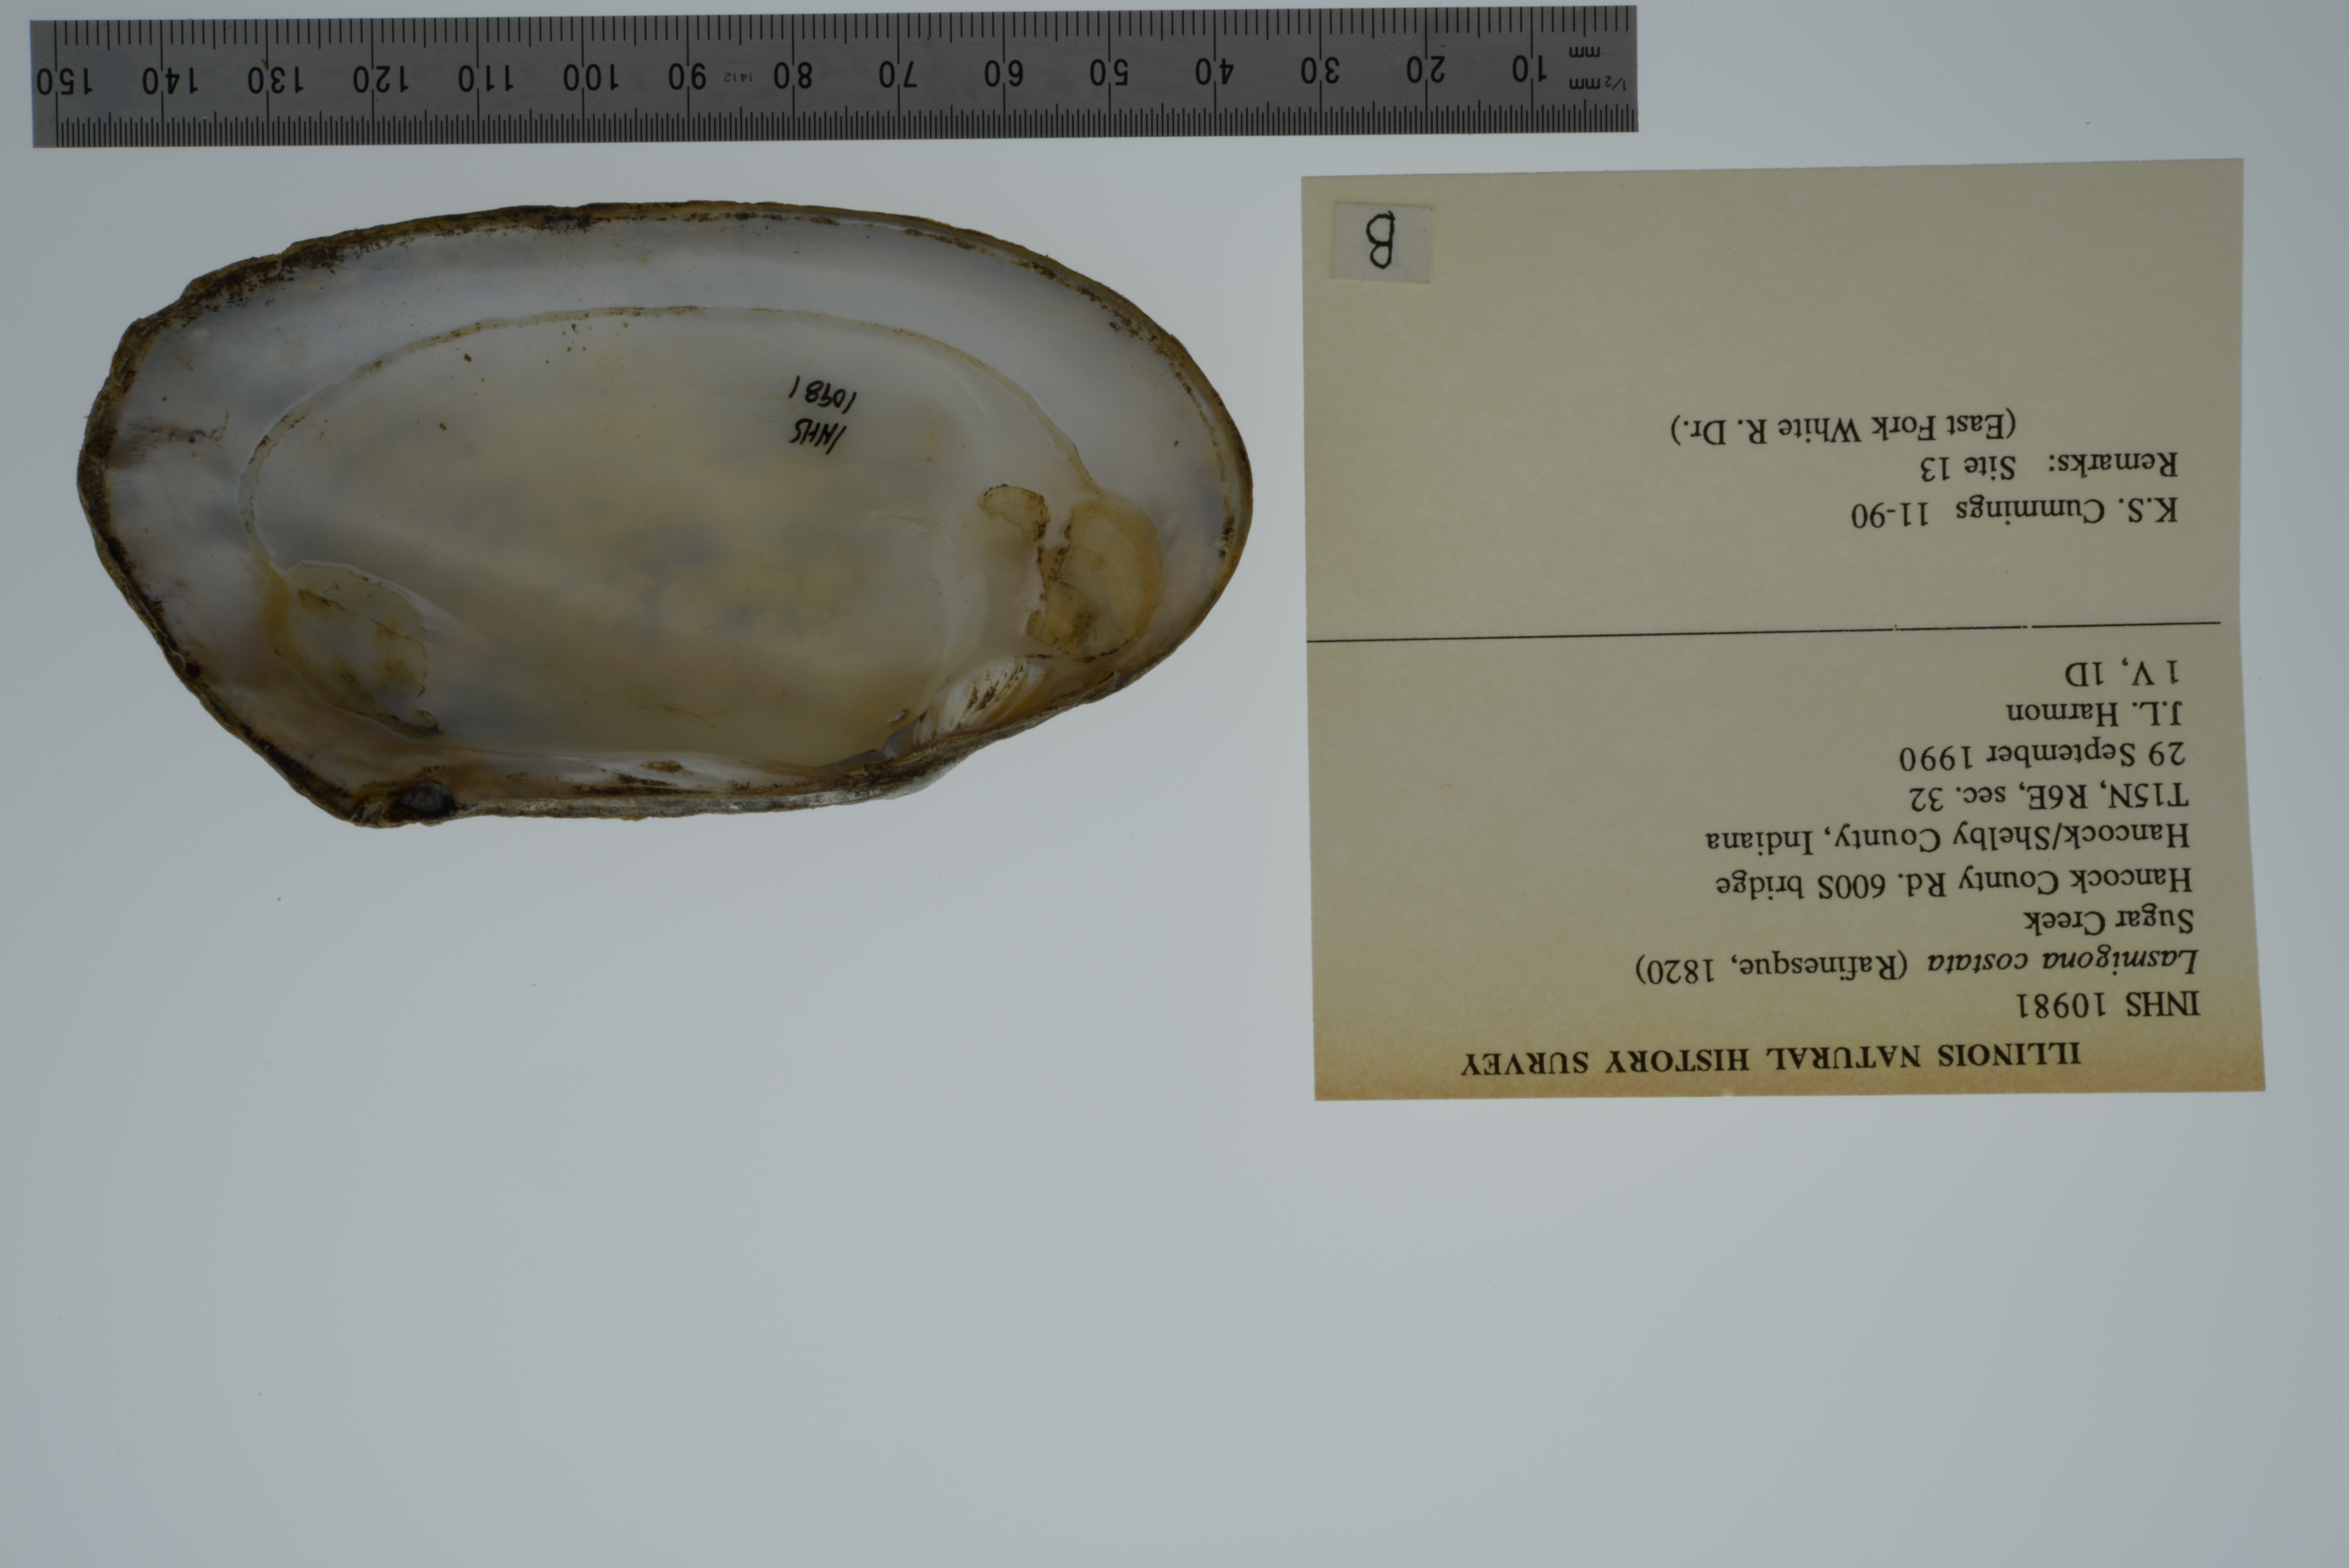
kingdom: Animalia
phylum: Mollusca
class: Bivalvia
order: Unionida
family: Unionidae
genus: Lasmigona
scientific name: Lasmigona costata
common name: Flutedshell
